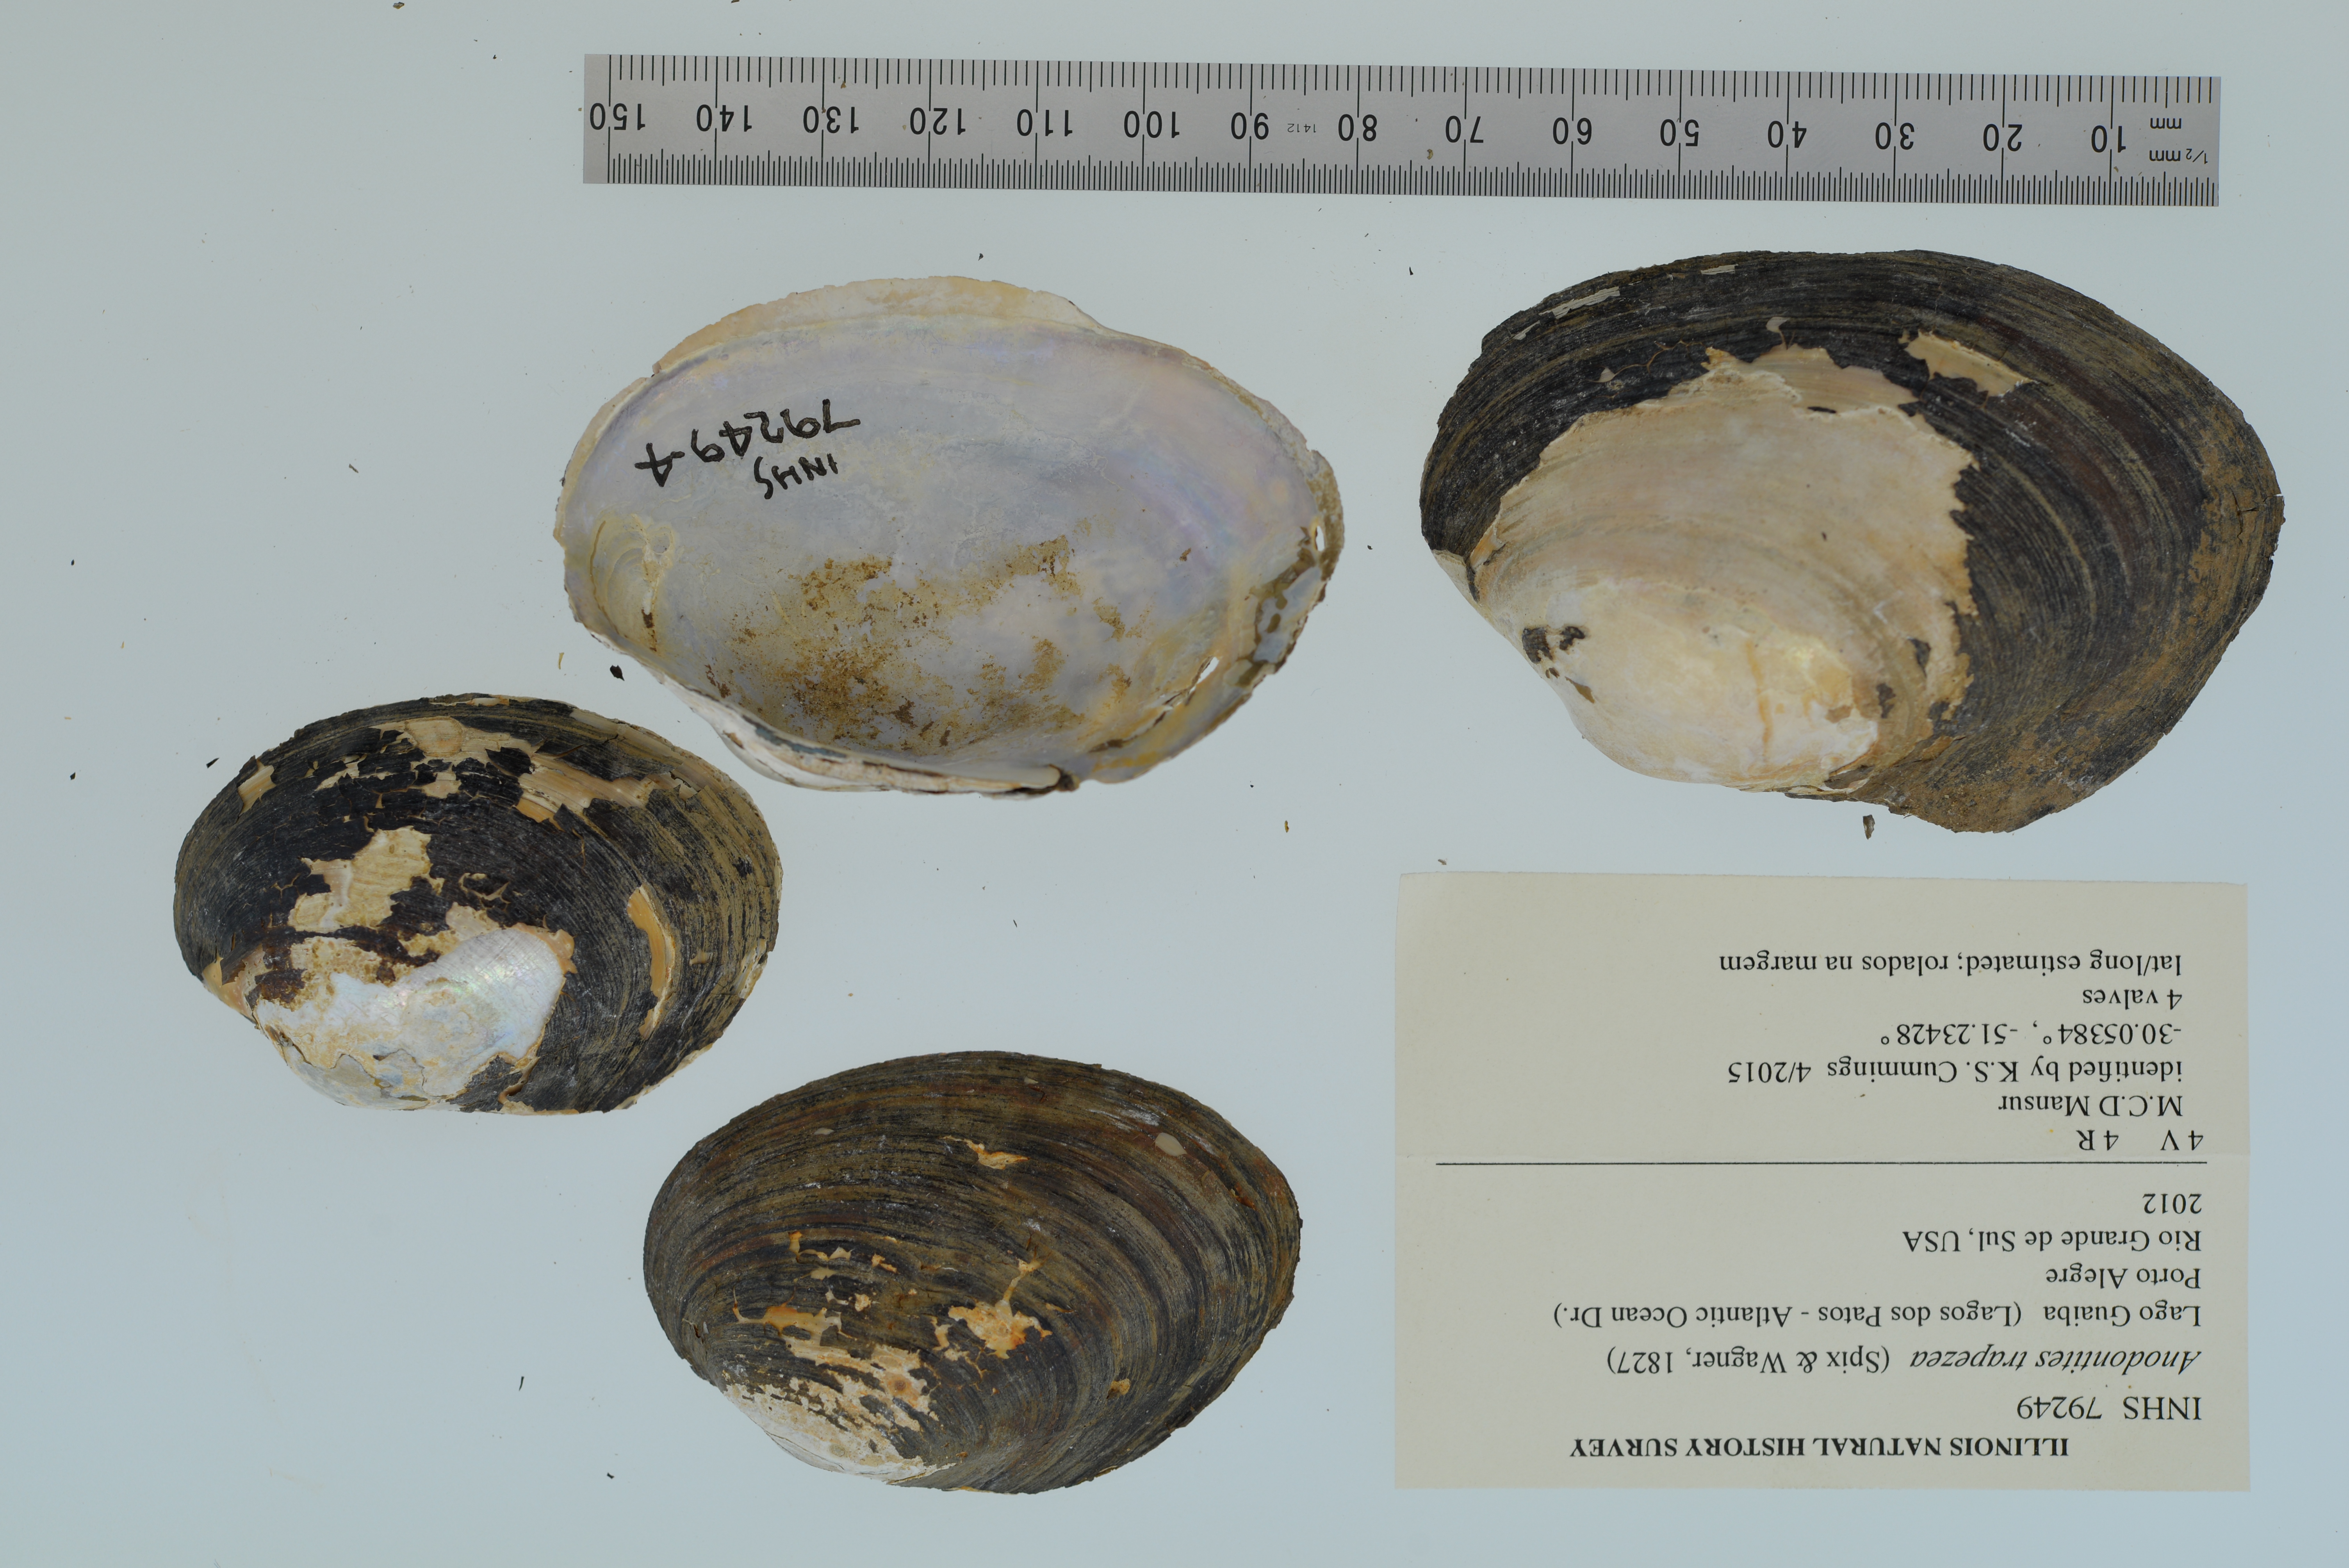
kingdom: Animalia
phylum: Mollusca
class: Bivalvia
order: Unionida
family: Mycetopodidae
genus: Anodontites
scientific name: Anodontites
